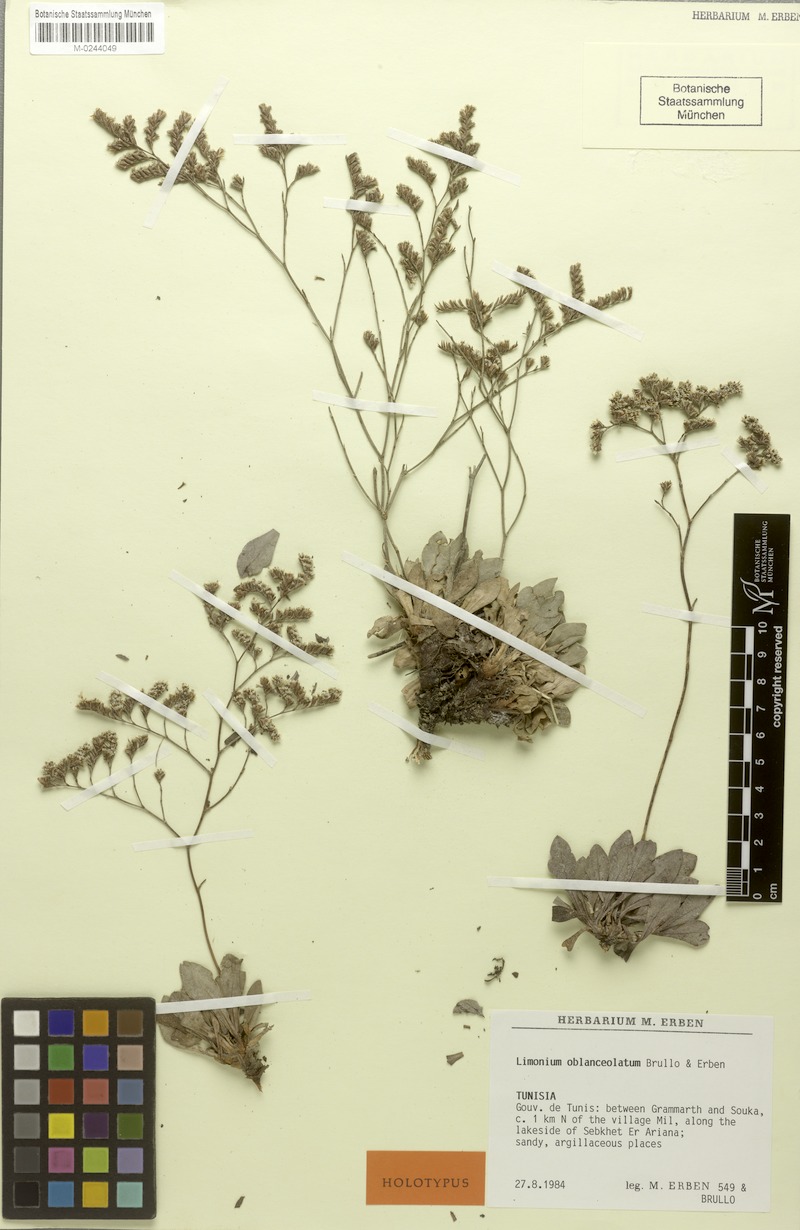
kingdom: Plantae
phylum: Tracheophyta
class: Magnoliopsida
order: Caryophyllales
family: Plumbaginaceae
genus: Limonium
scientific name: Limonium oblanceolatum
